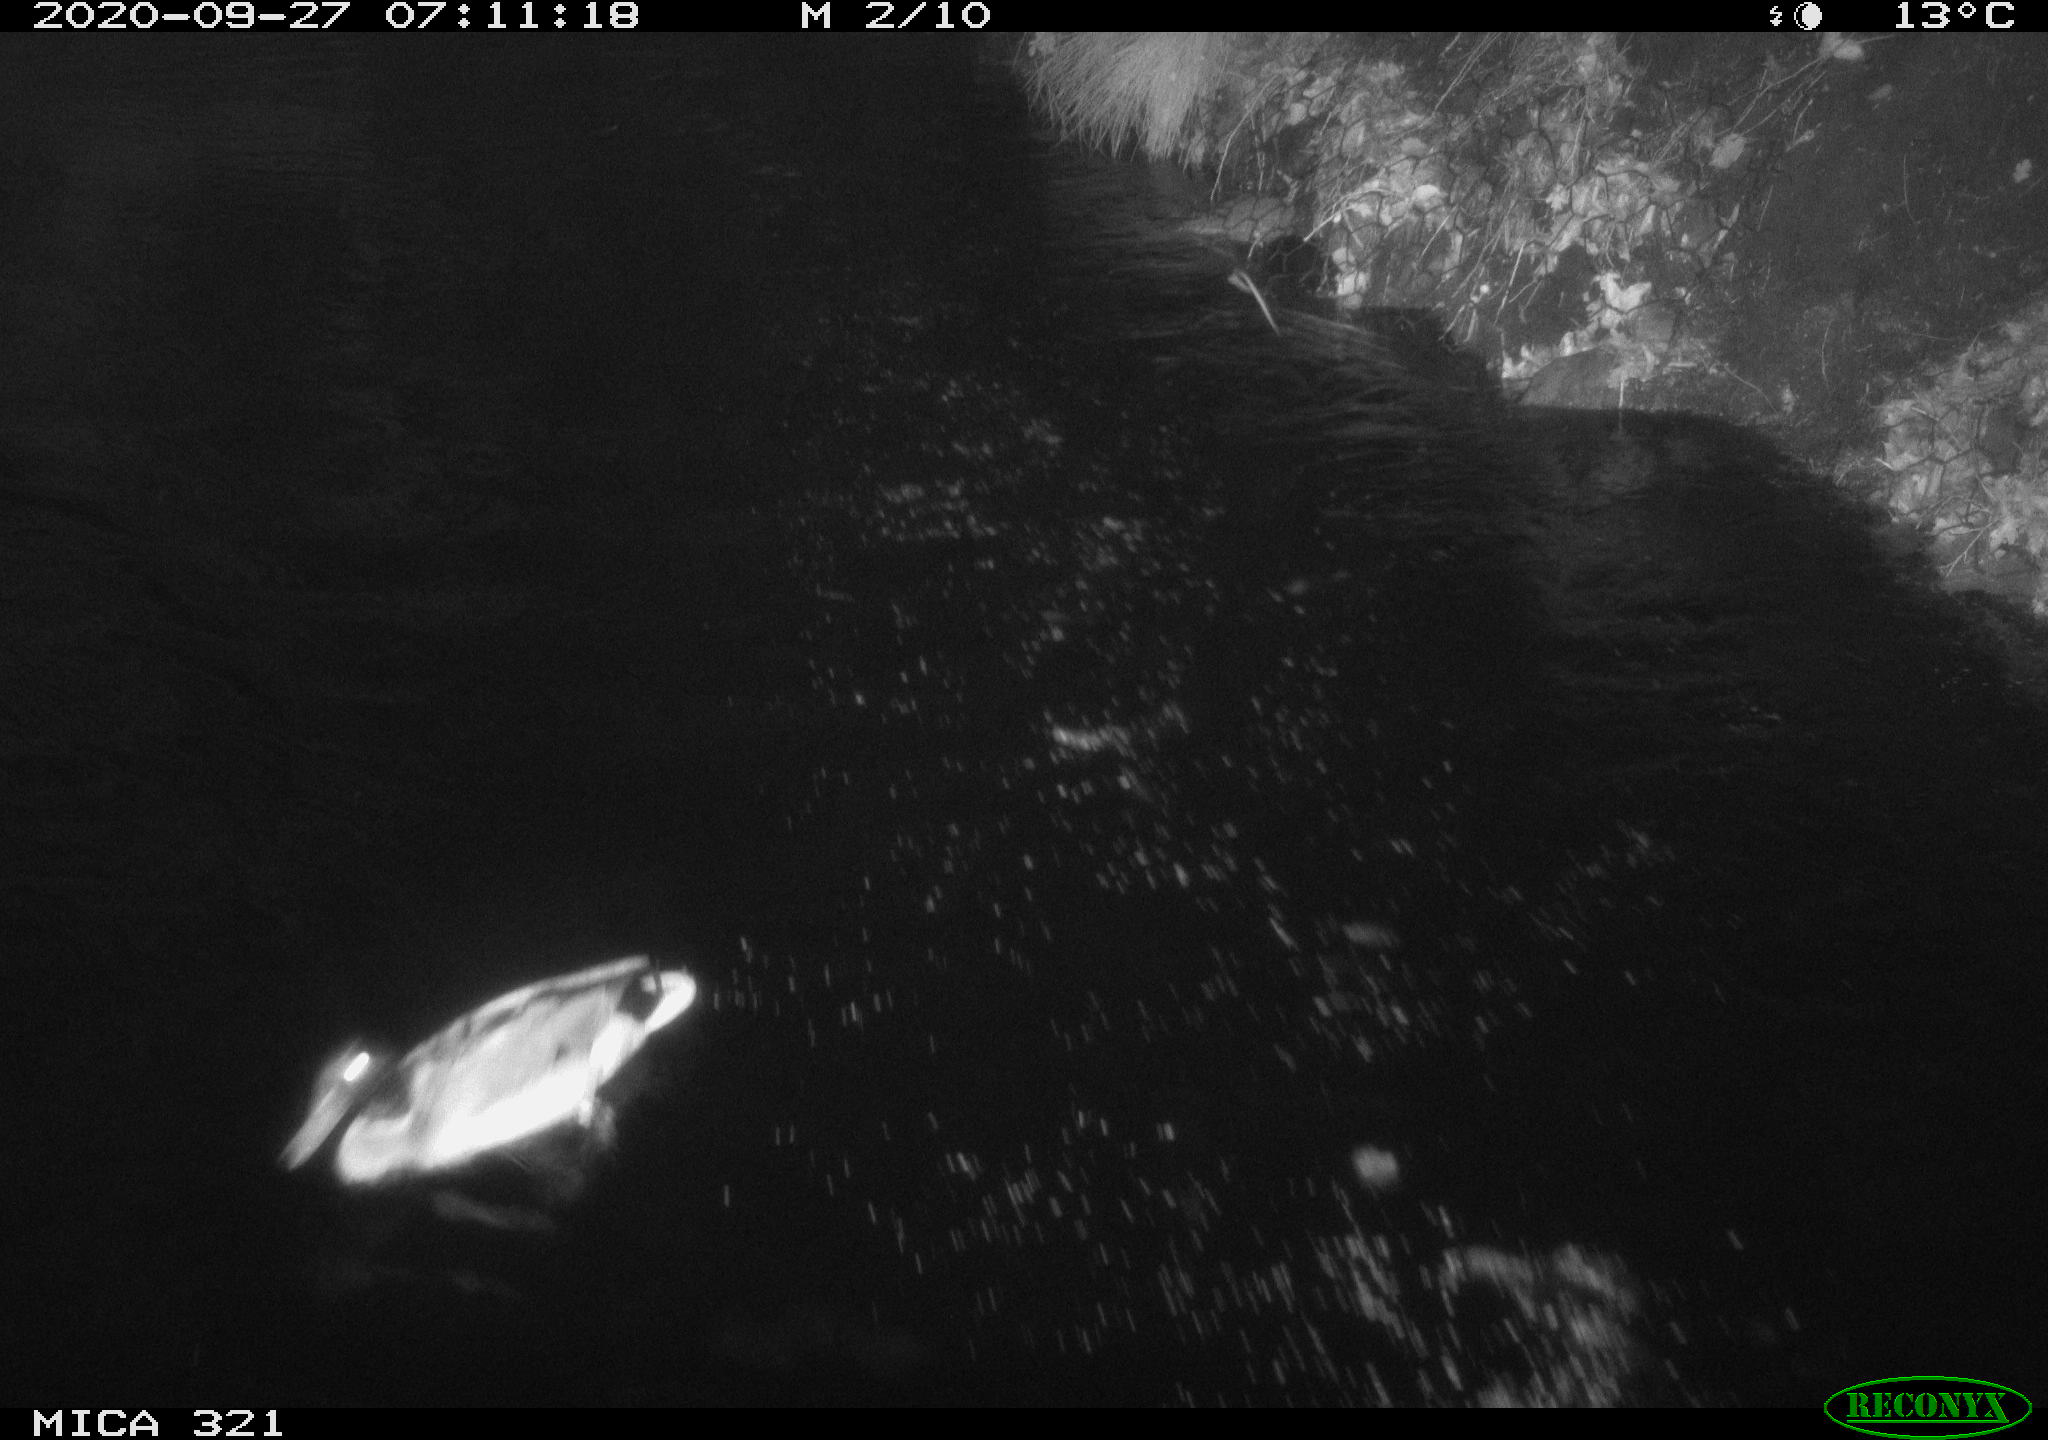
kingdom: Animalia
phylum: Chordata
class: Aves
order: Anseriformes
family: Anatidae
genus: Anas
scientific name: Anas platyrhynchos
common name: Mallard
